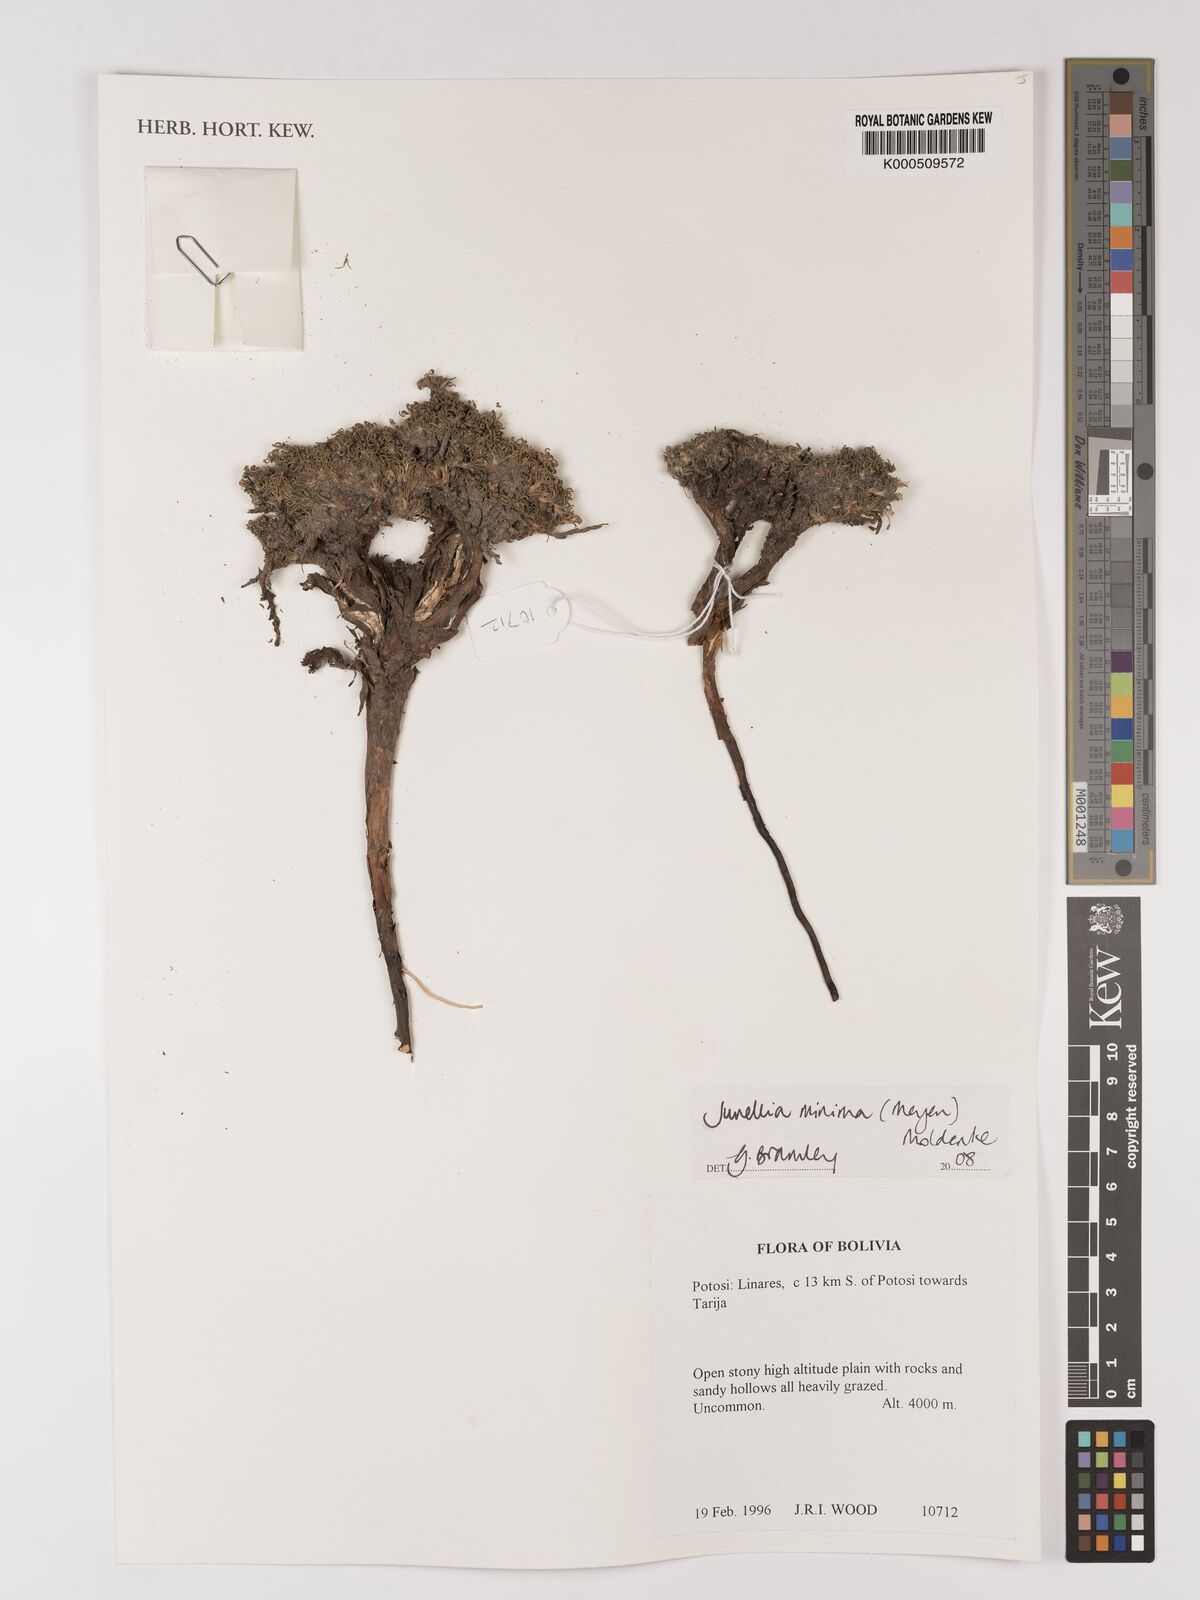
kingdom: Plantae
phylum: Tracheophyta
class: Magnoliopsida
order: Lamiales
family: Verbenaceae
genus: Junellia
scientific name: Junellia minima
